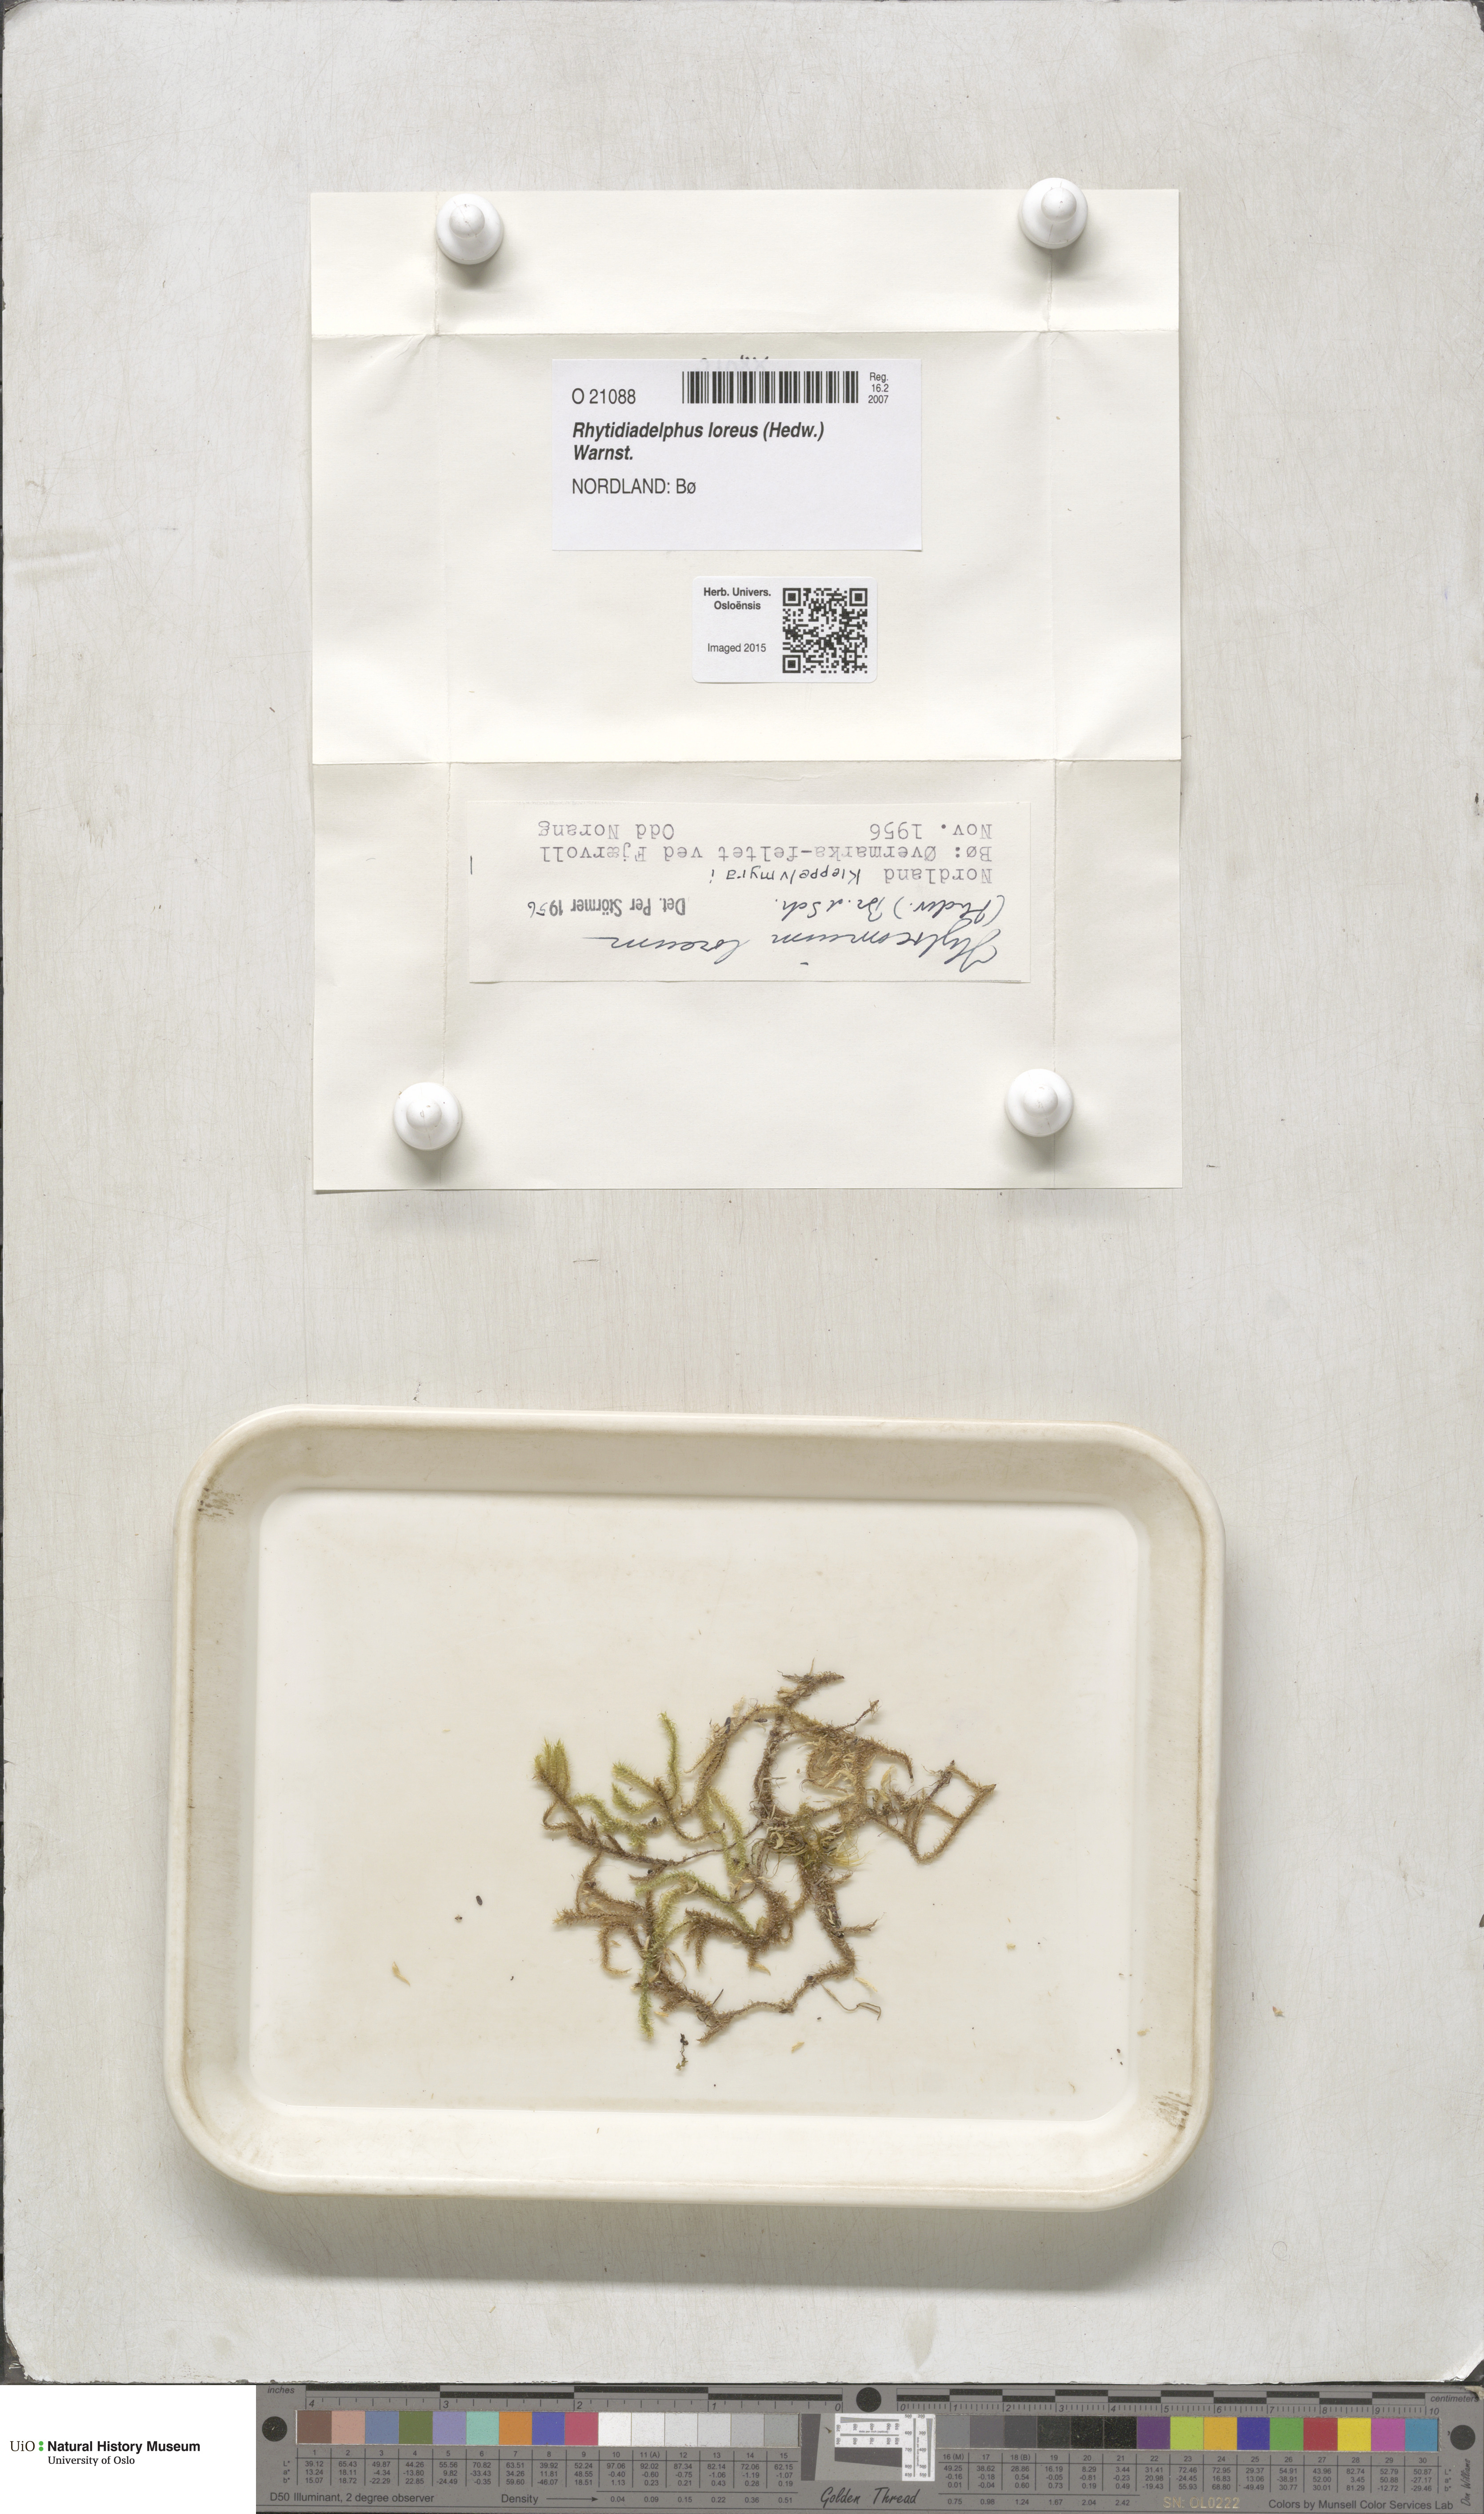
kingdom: Plantae
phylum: Bryophyta
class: Bryopsida
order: Hypnales
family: Hylocomiaceae
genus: Rhytidiadelphus
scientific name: Rhytidiadelphus loreus
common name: Lanky moss
